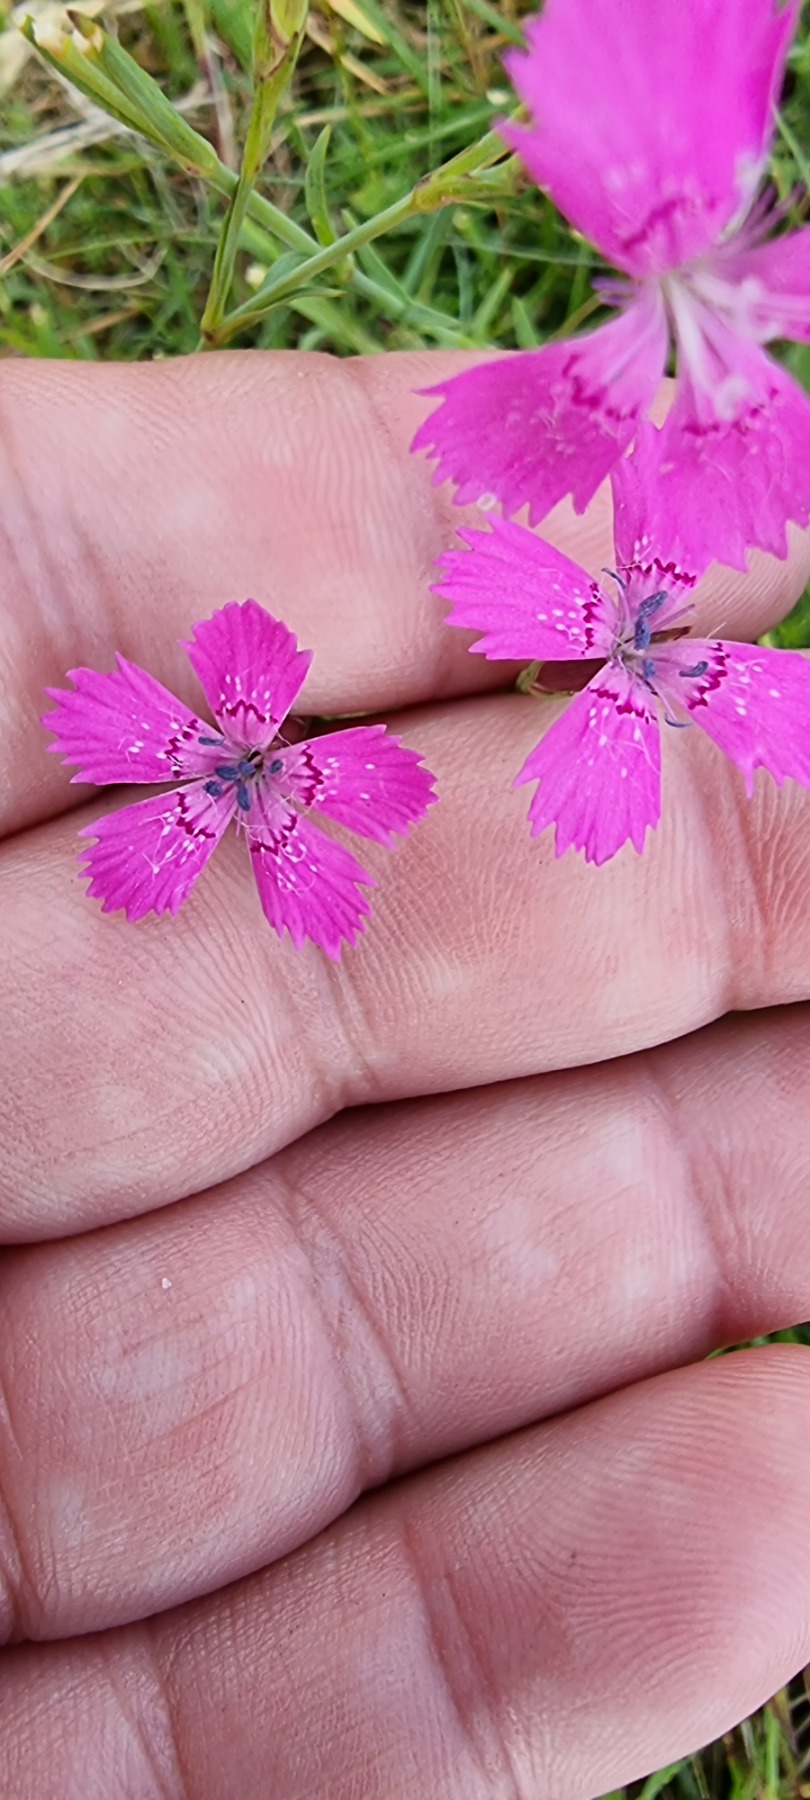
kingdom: Plantae
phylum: Tracheophyta
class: Magnoliopsida
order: Caryophyllales
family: Caryophyllaceae
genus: Dianthus
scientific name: Dianthus deltoides
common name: Bakke-nellike
